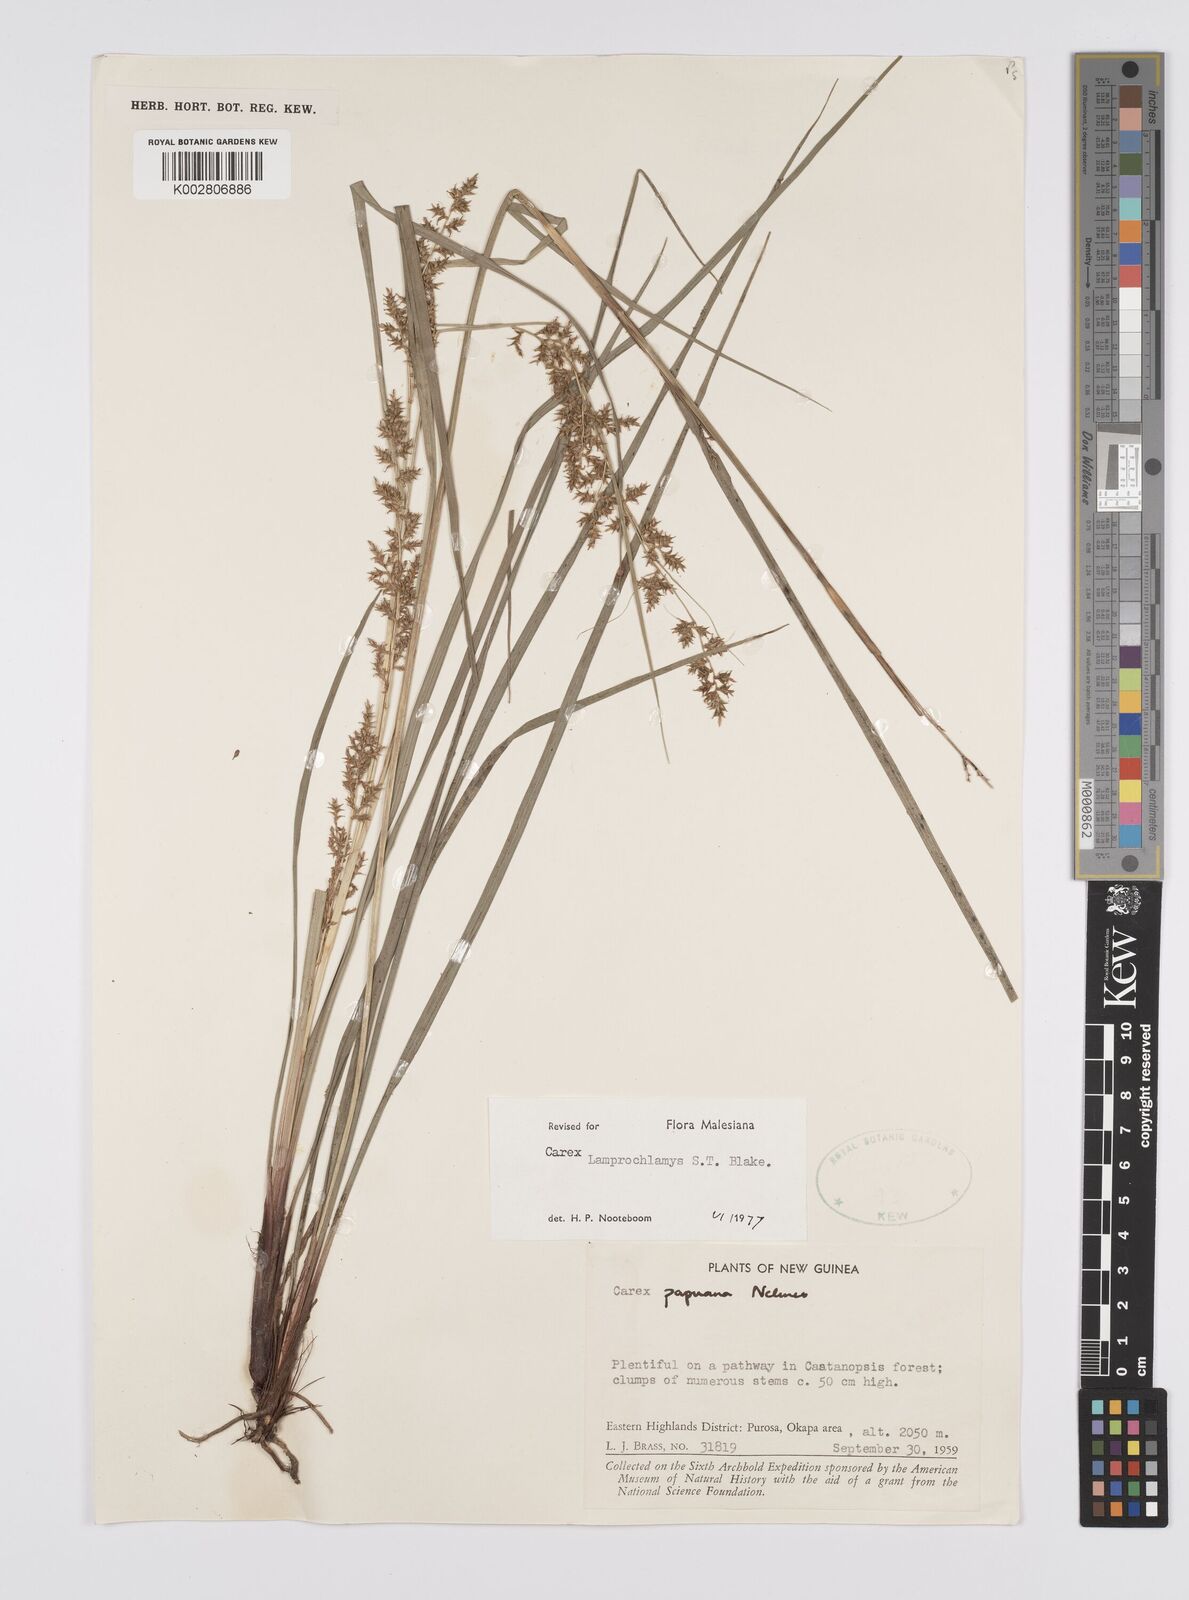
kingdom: Plantae
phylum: Tracheophyta
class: Liliopsida
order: Poales
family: Cyperaceae
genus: Carex
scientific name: Carex lamprochlamys
